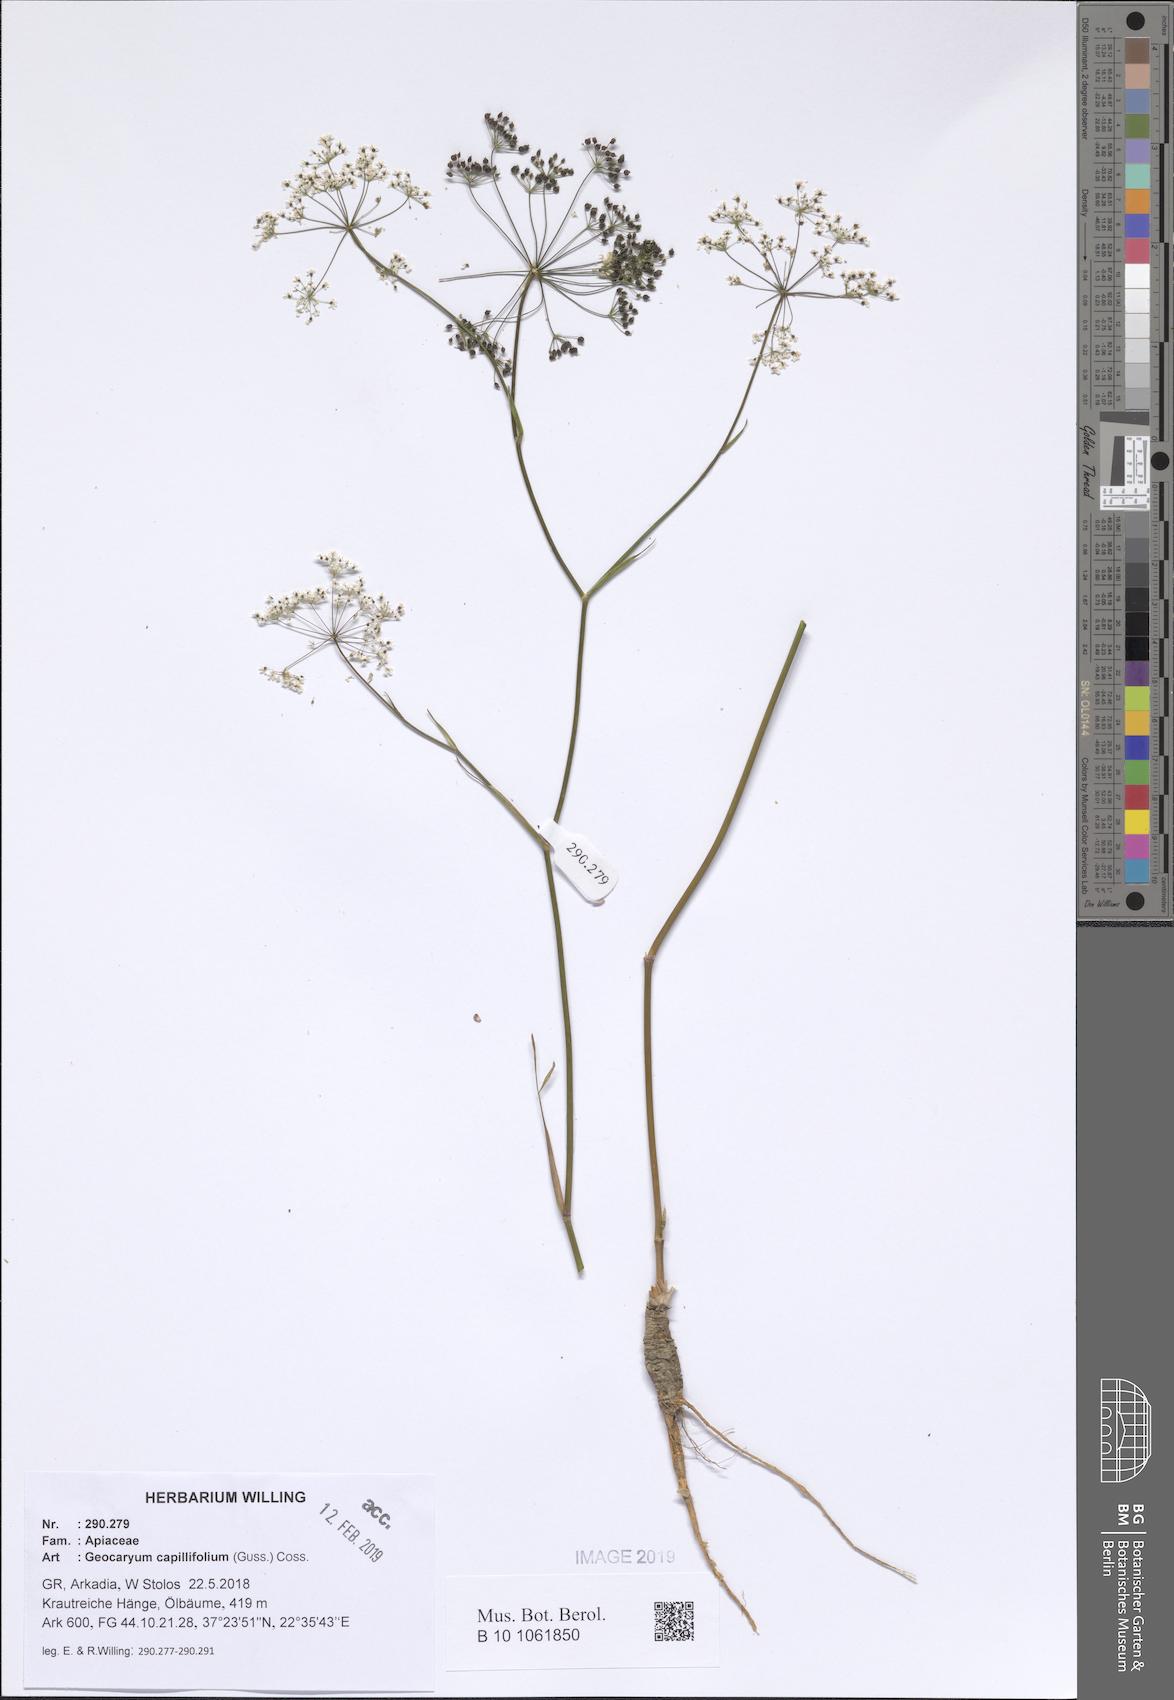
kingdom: Plantae
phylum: Tracheophyta
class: Magnoliopsida
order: Apiales
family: Apiaceae
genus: Geocaryum
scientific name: Geocaryum capillifolium
